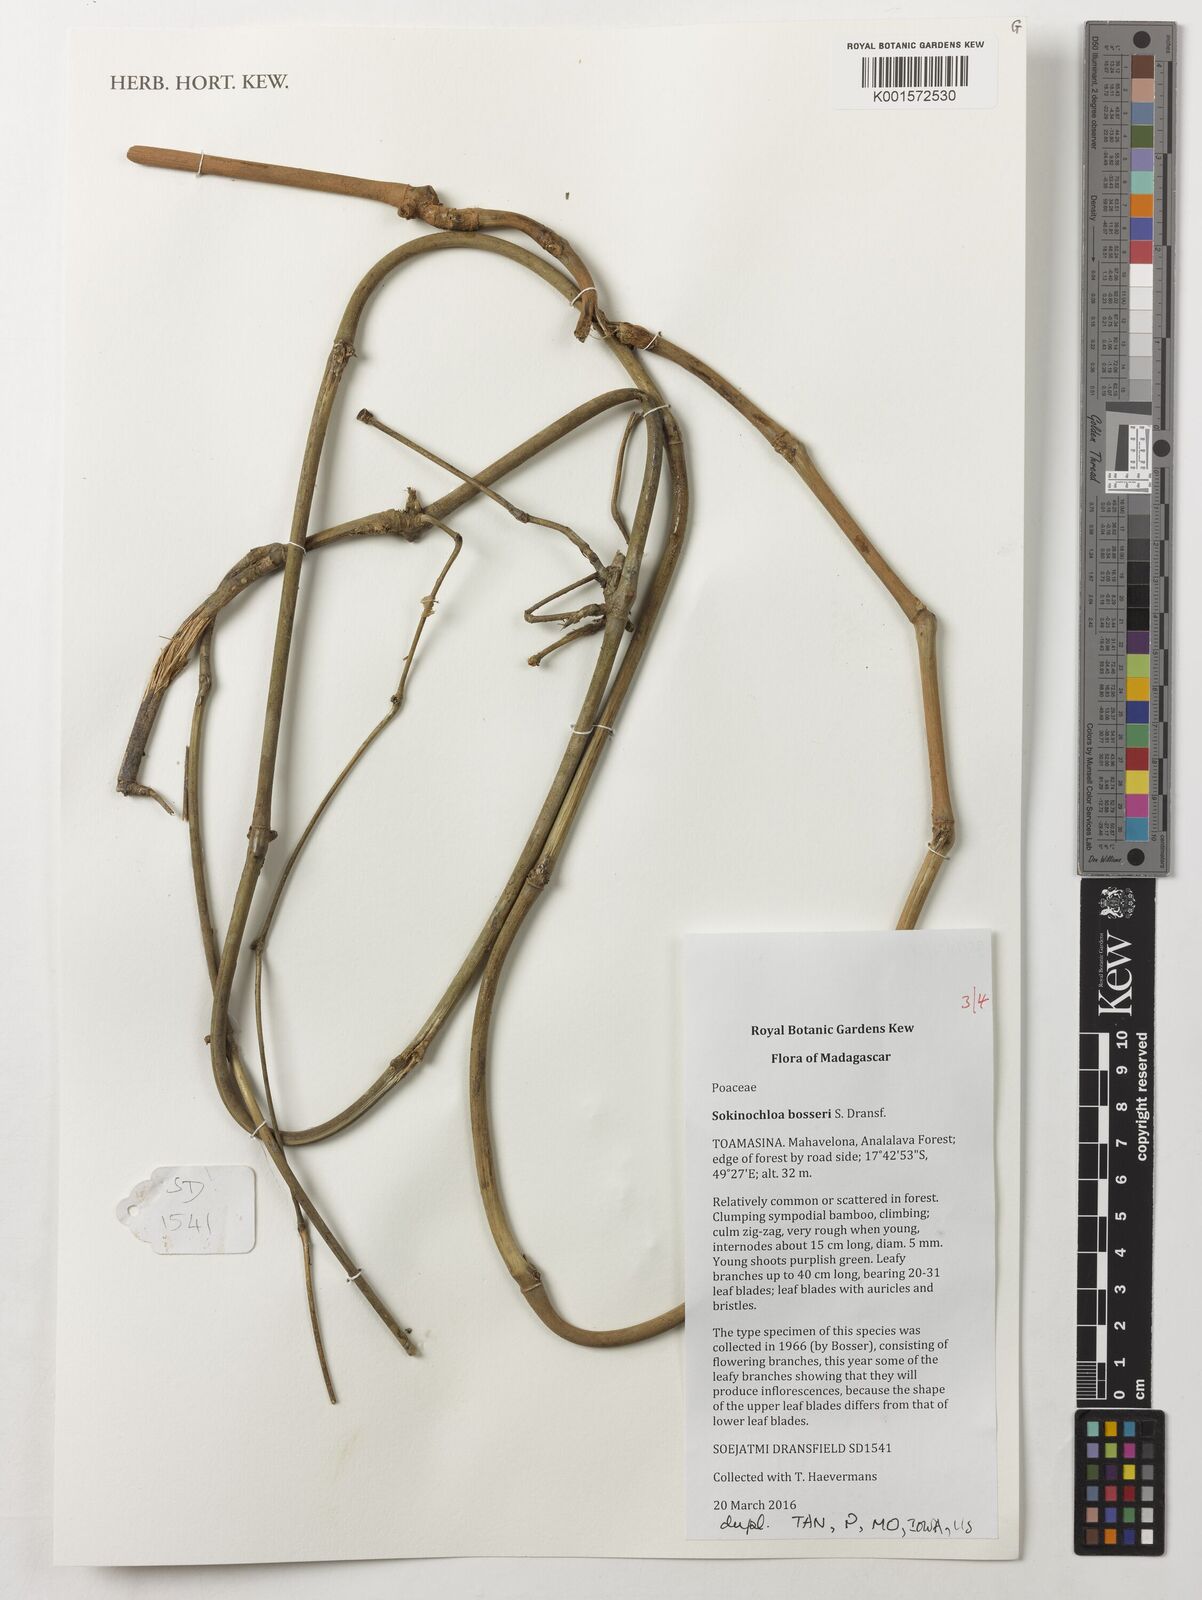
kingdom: Plantae
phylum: Tracheophyta
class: Liliopsida
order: Poales
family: Poaceae
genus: Sokinochloa
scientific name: Sokinochloa bosseri
